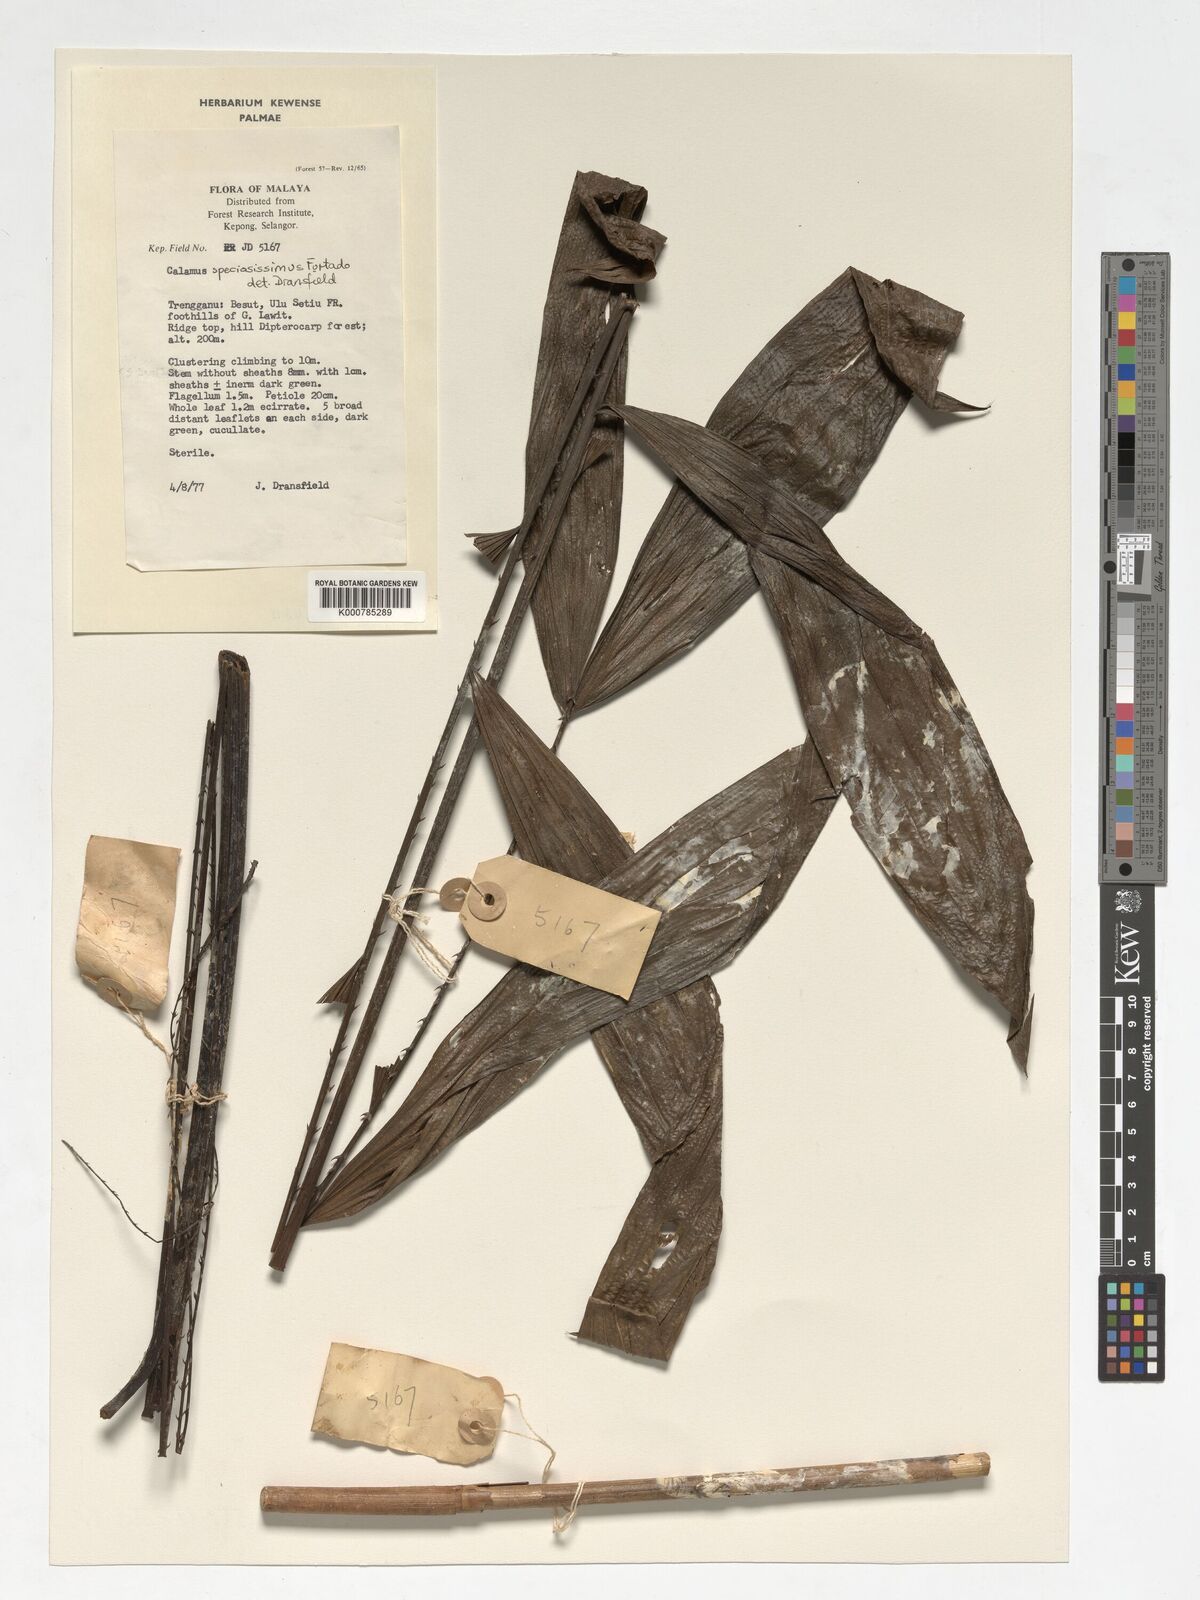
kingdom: Plantae
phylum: Tracheophyta
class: Liliopsida
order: Arecales
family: Arecaceae
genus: Calamus
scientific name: Calamus micranthus
